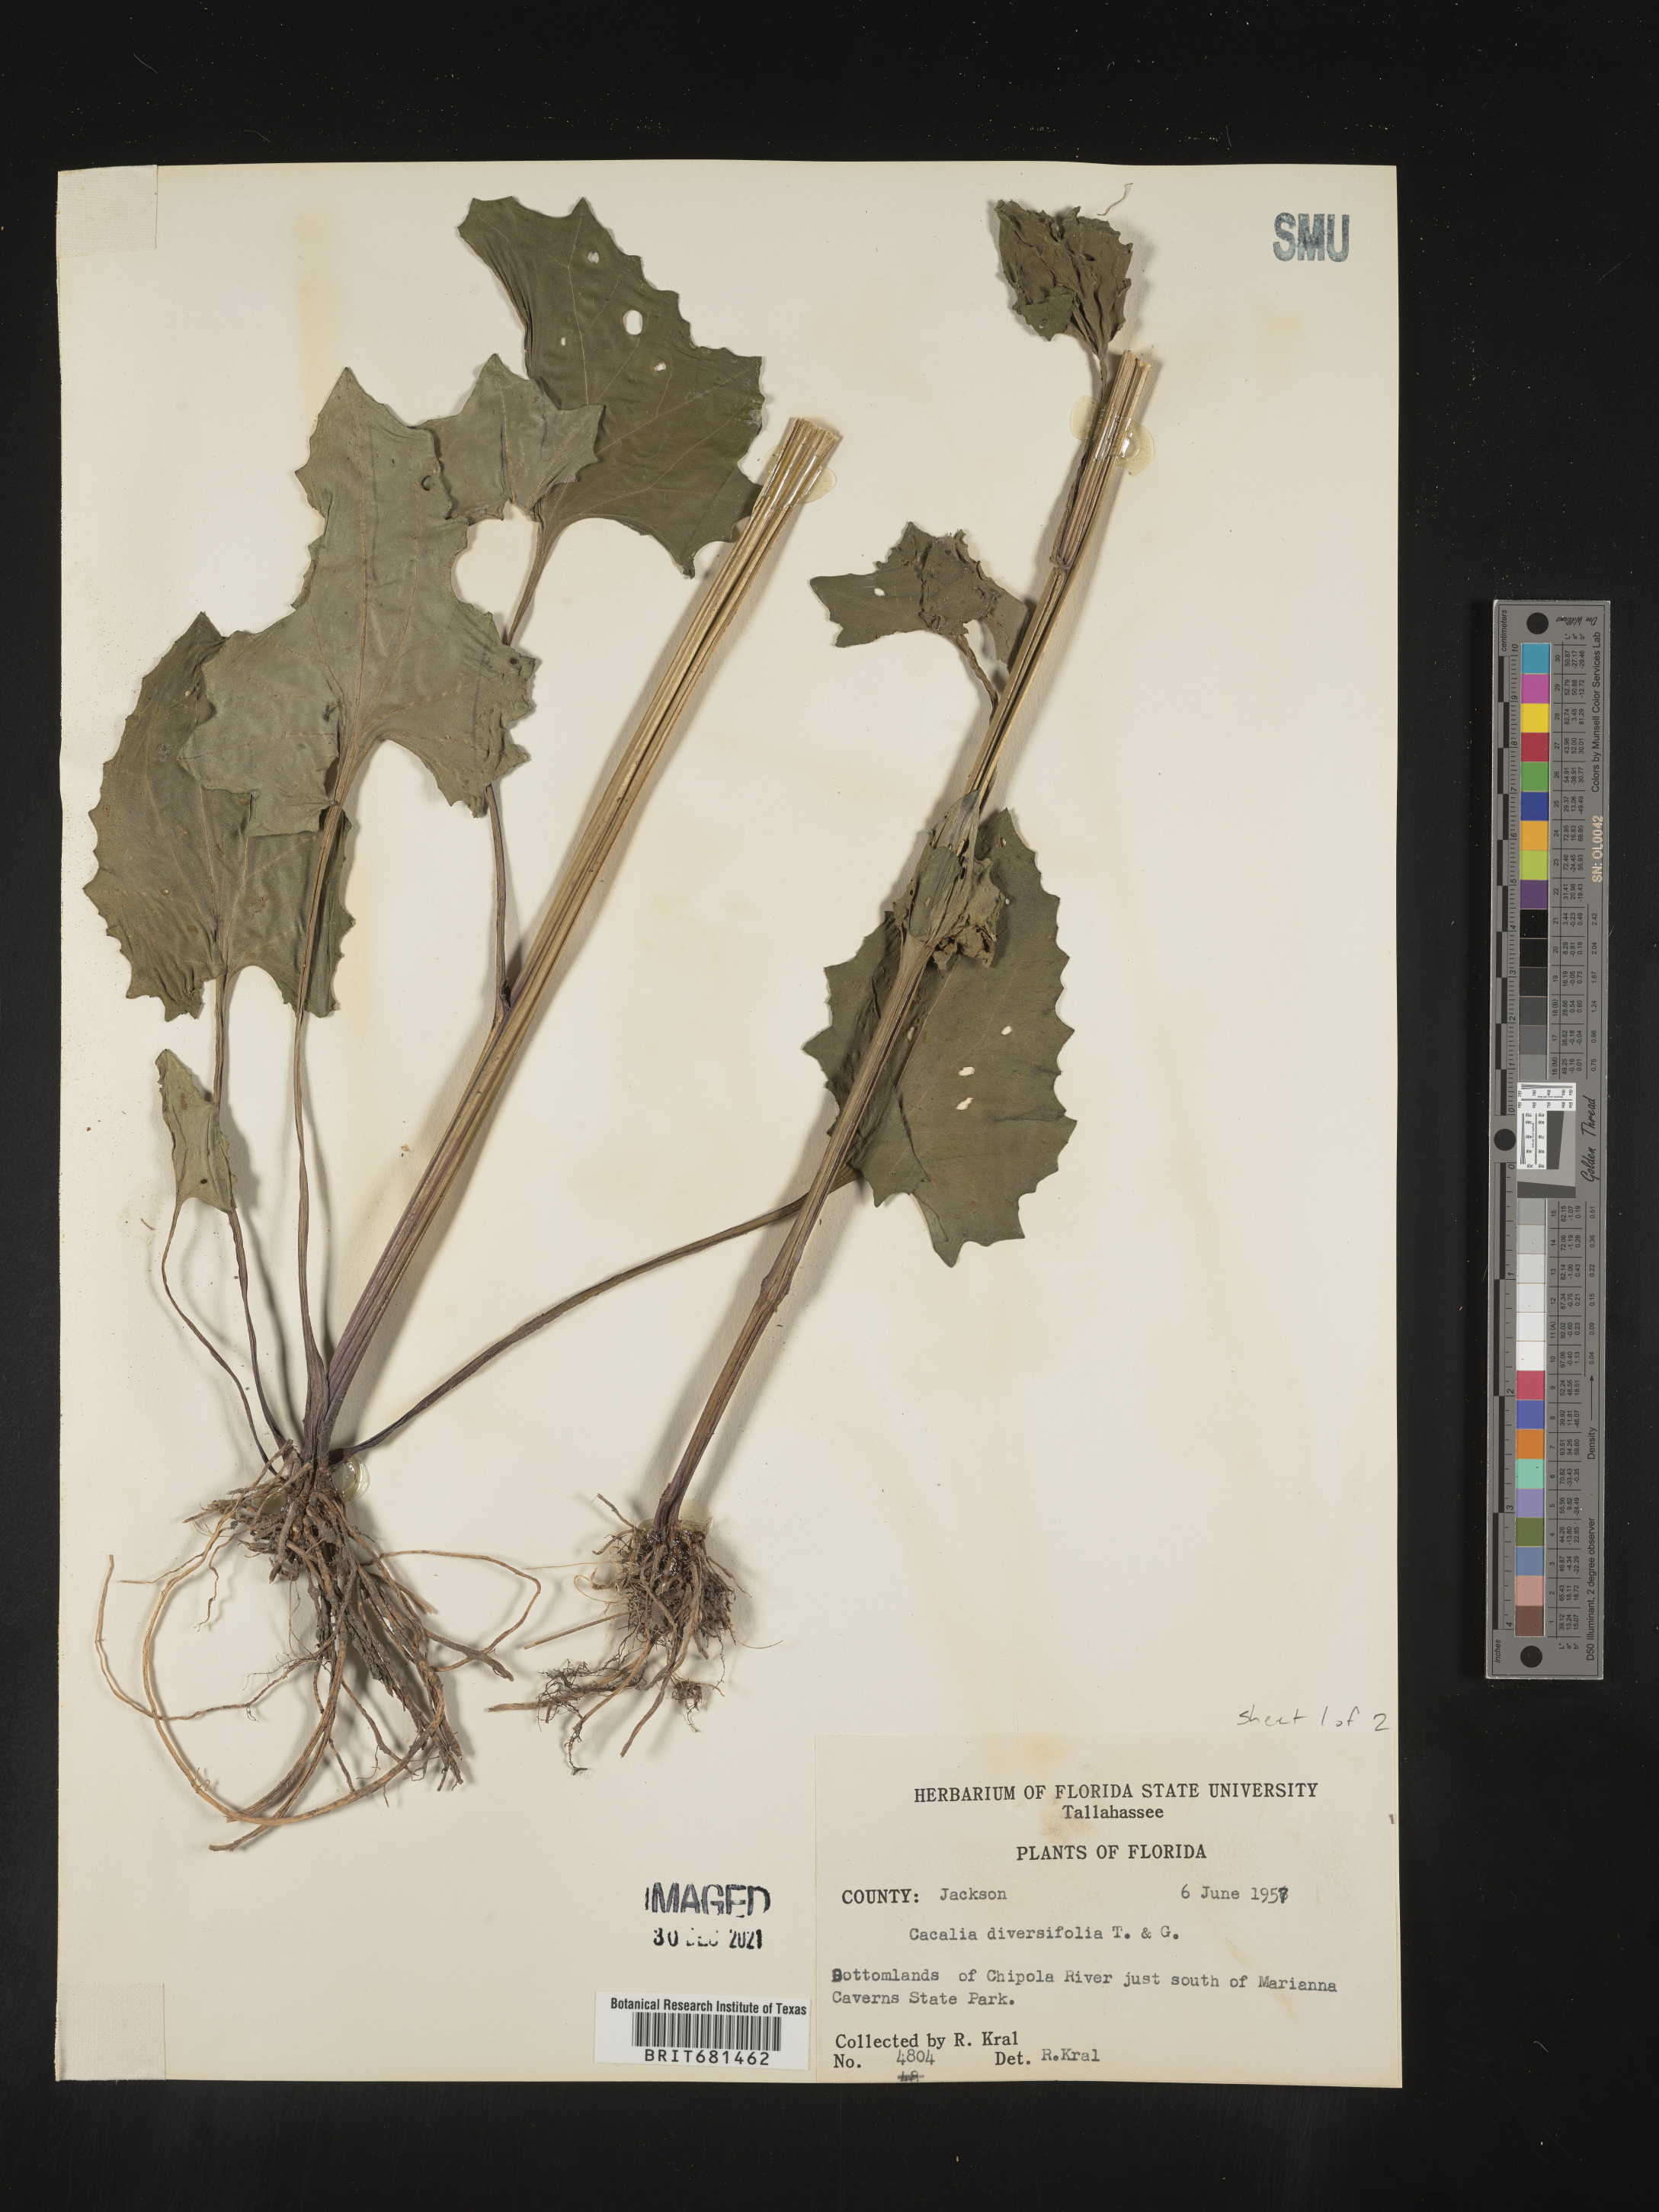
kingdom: Plantae
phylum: Tracheophyta
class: Magnoliopsida
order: Asterales
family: Asteraceae
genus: Arnoglossum
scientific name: Arnoglossum diversifolium
